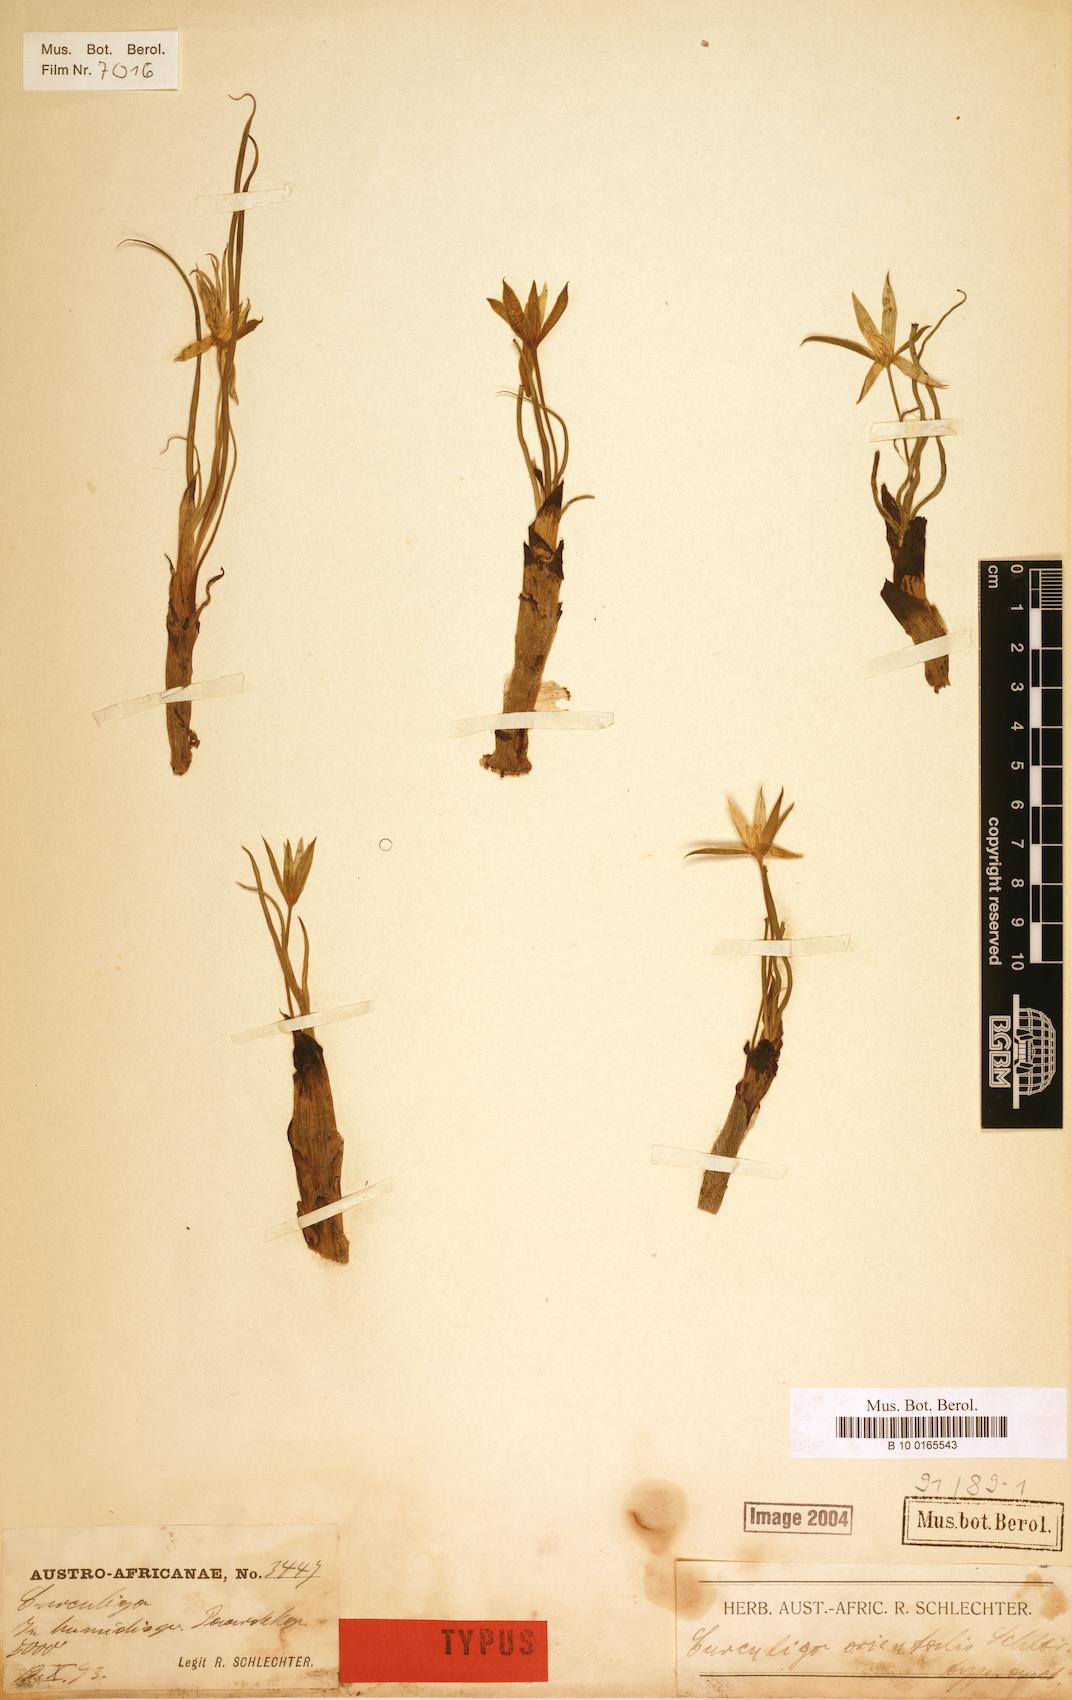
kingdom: Plantae
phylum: Tracheophyta
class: Liliopsida
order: Asparagales
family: Hypoxidaceae
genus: Curculigo
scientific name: Curculigo
